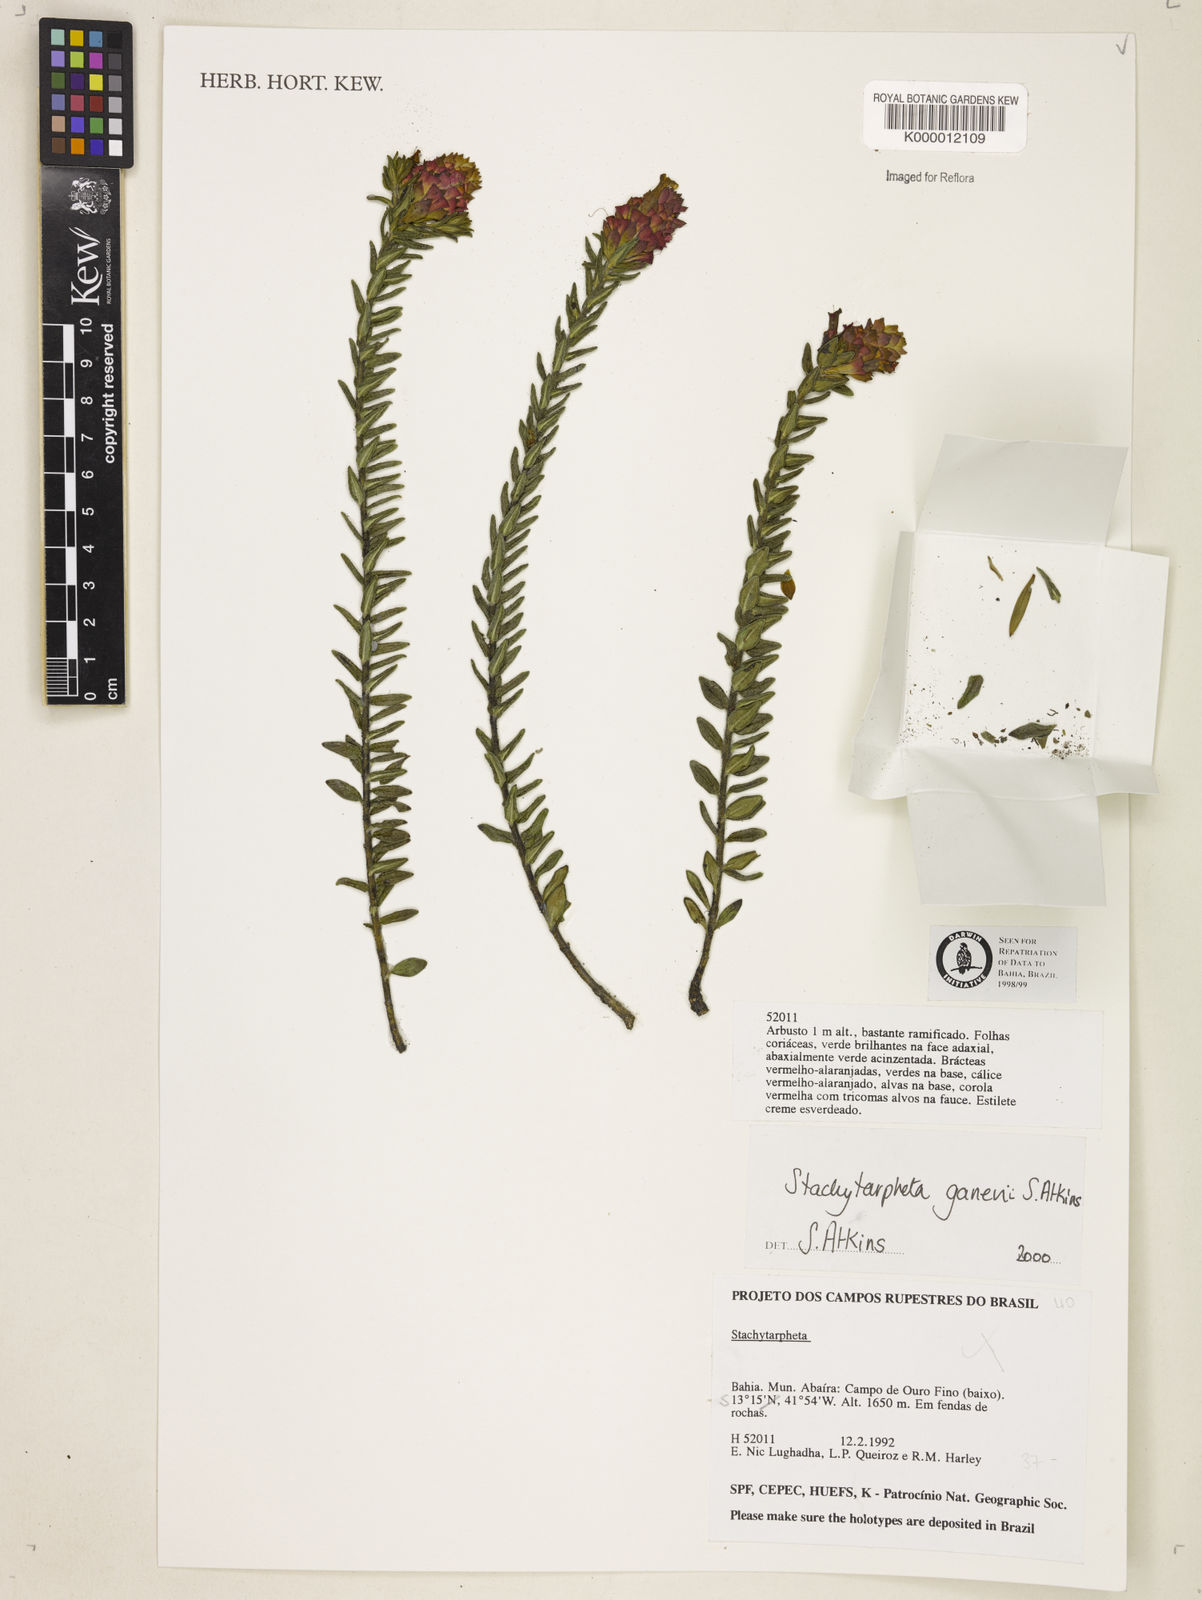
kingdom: Plantae
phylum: Tracheophyta
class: Magnoliopsida
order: Lamiales
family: Verbenaceae
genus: Stachytarpheta
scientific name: Stachytarpheta ganevii
